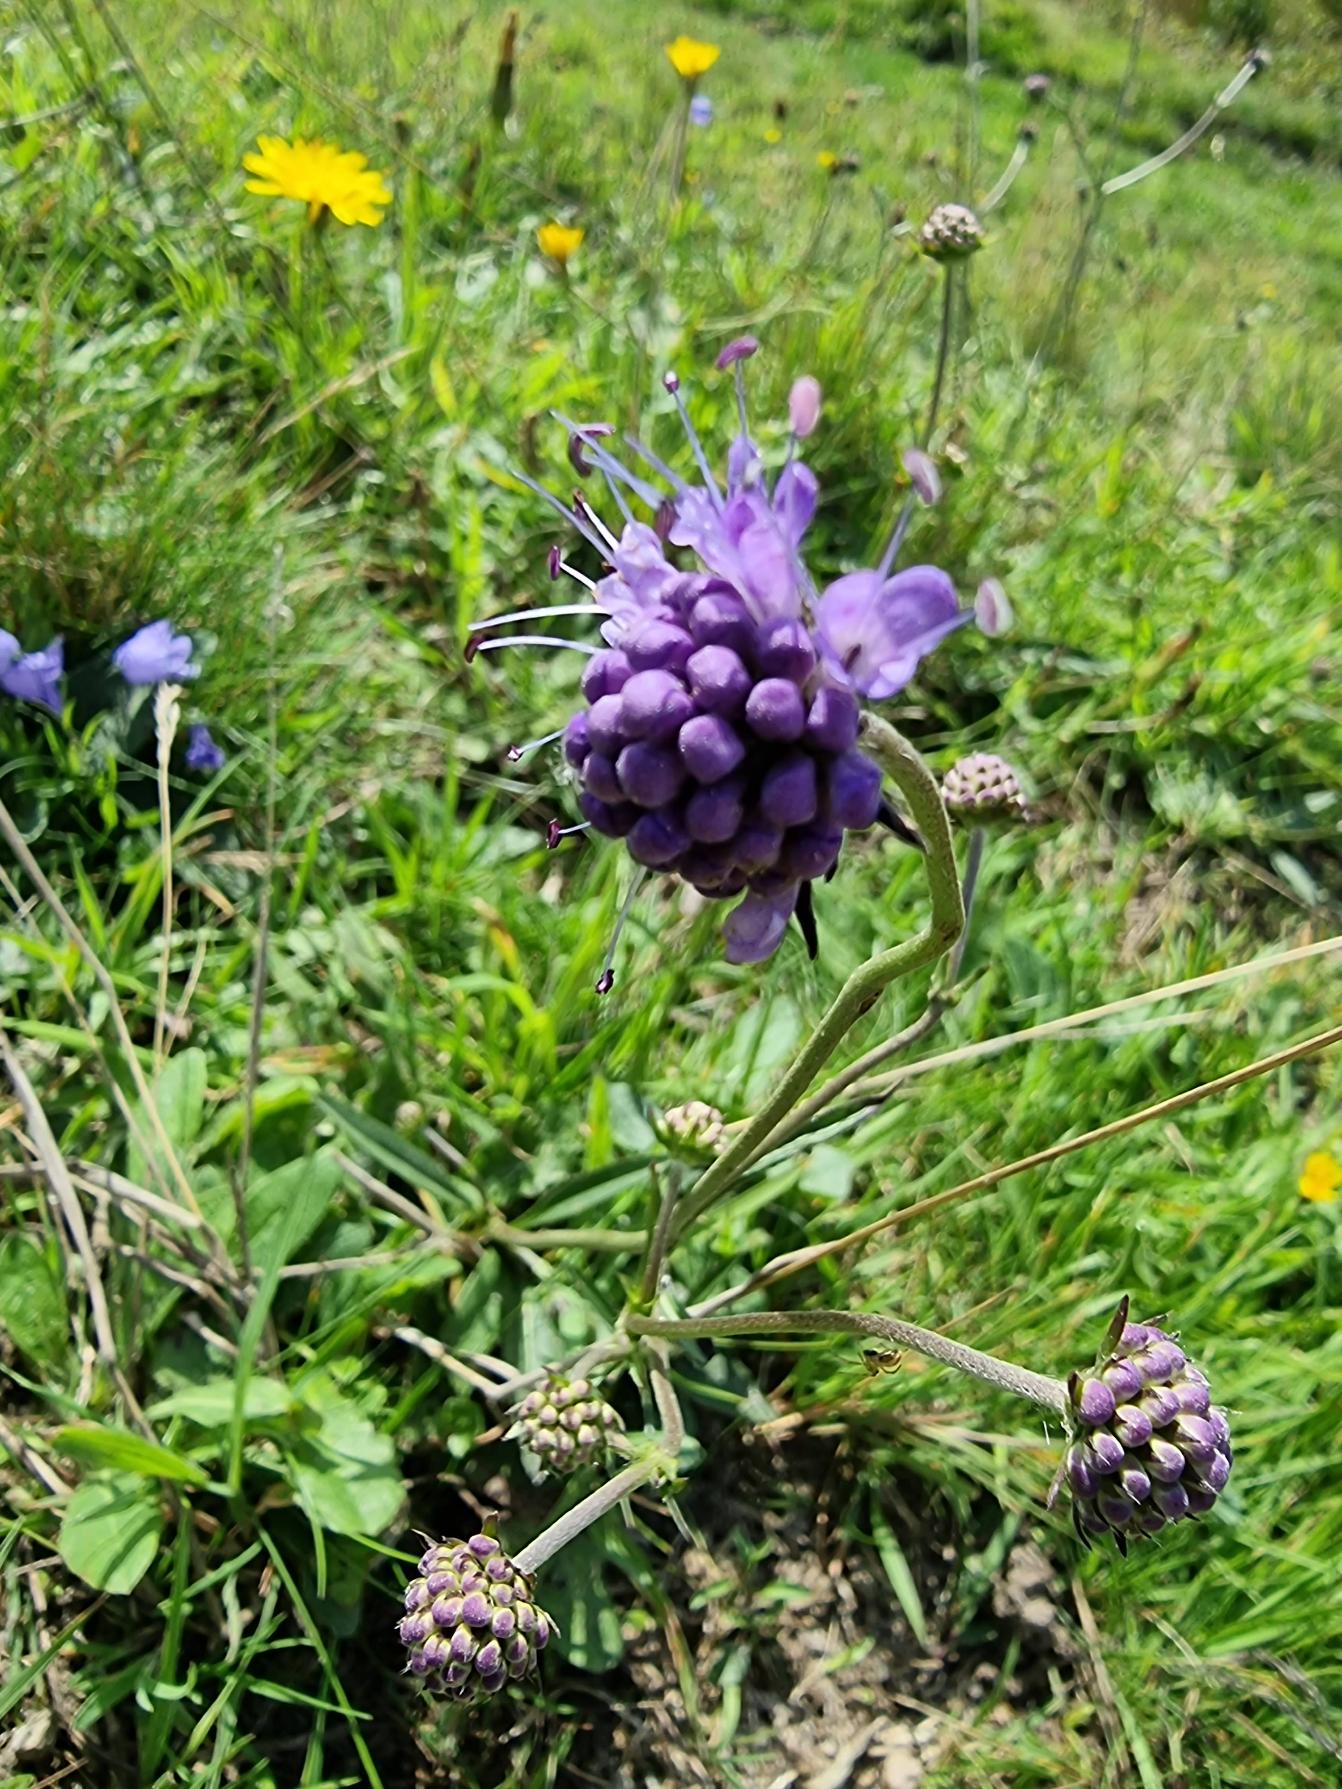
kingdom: Plantae
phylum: Tracheophyta
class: Magnoliopsida
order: Dipsacales
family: Caprifoliaceae
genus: Succisa
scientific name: Succisa pratensis
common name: Djævelsbid
